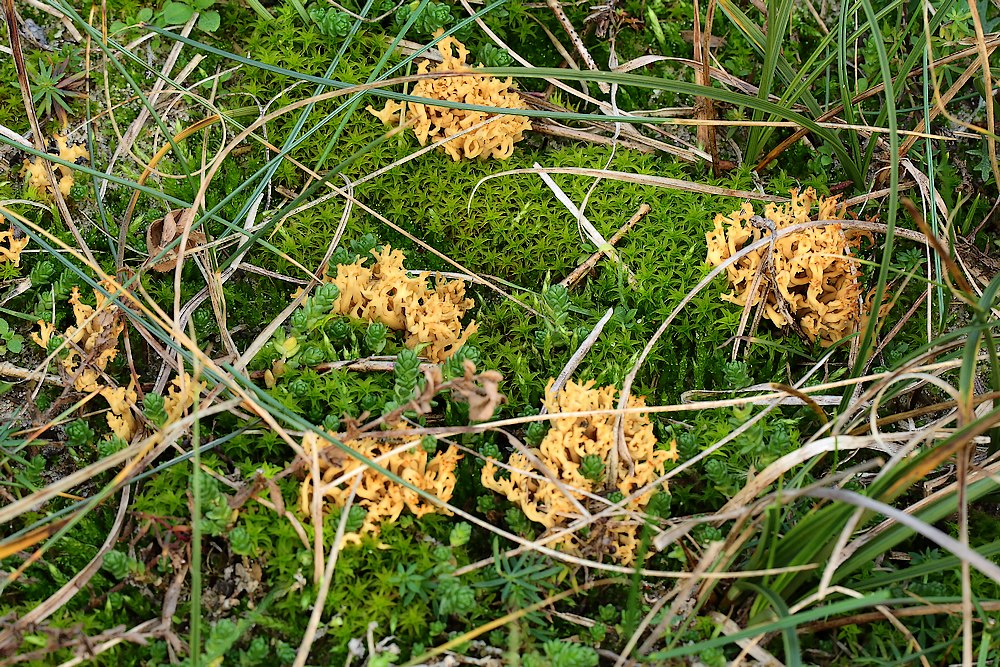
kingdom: Fungi
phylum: Basidiomycota
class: Agaricomycetes
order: Gomphales
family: Gomphaceae
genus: Phaeoclavulina
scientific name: Phaeoclavulina flaccida
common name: spinkel koralsvamp
